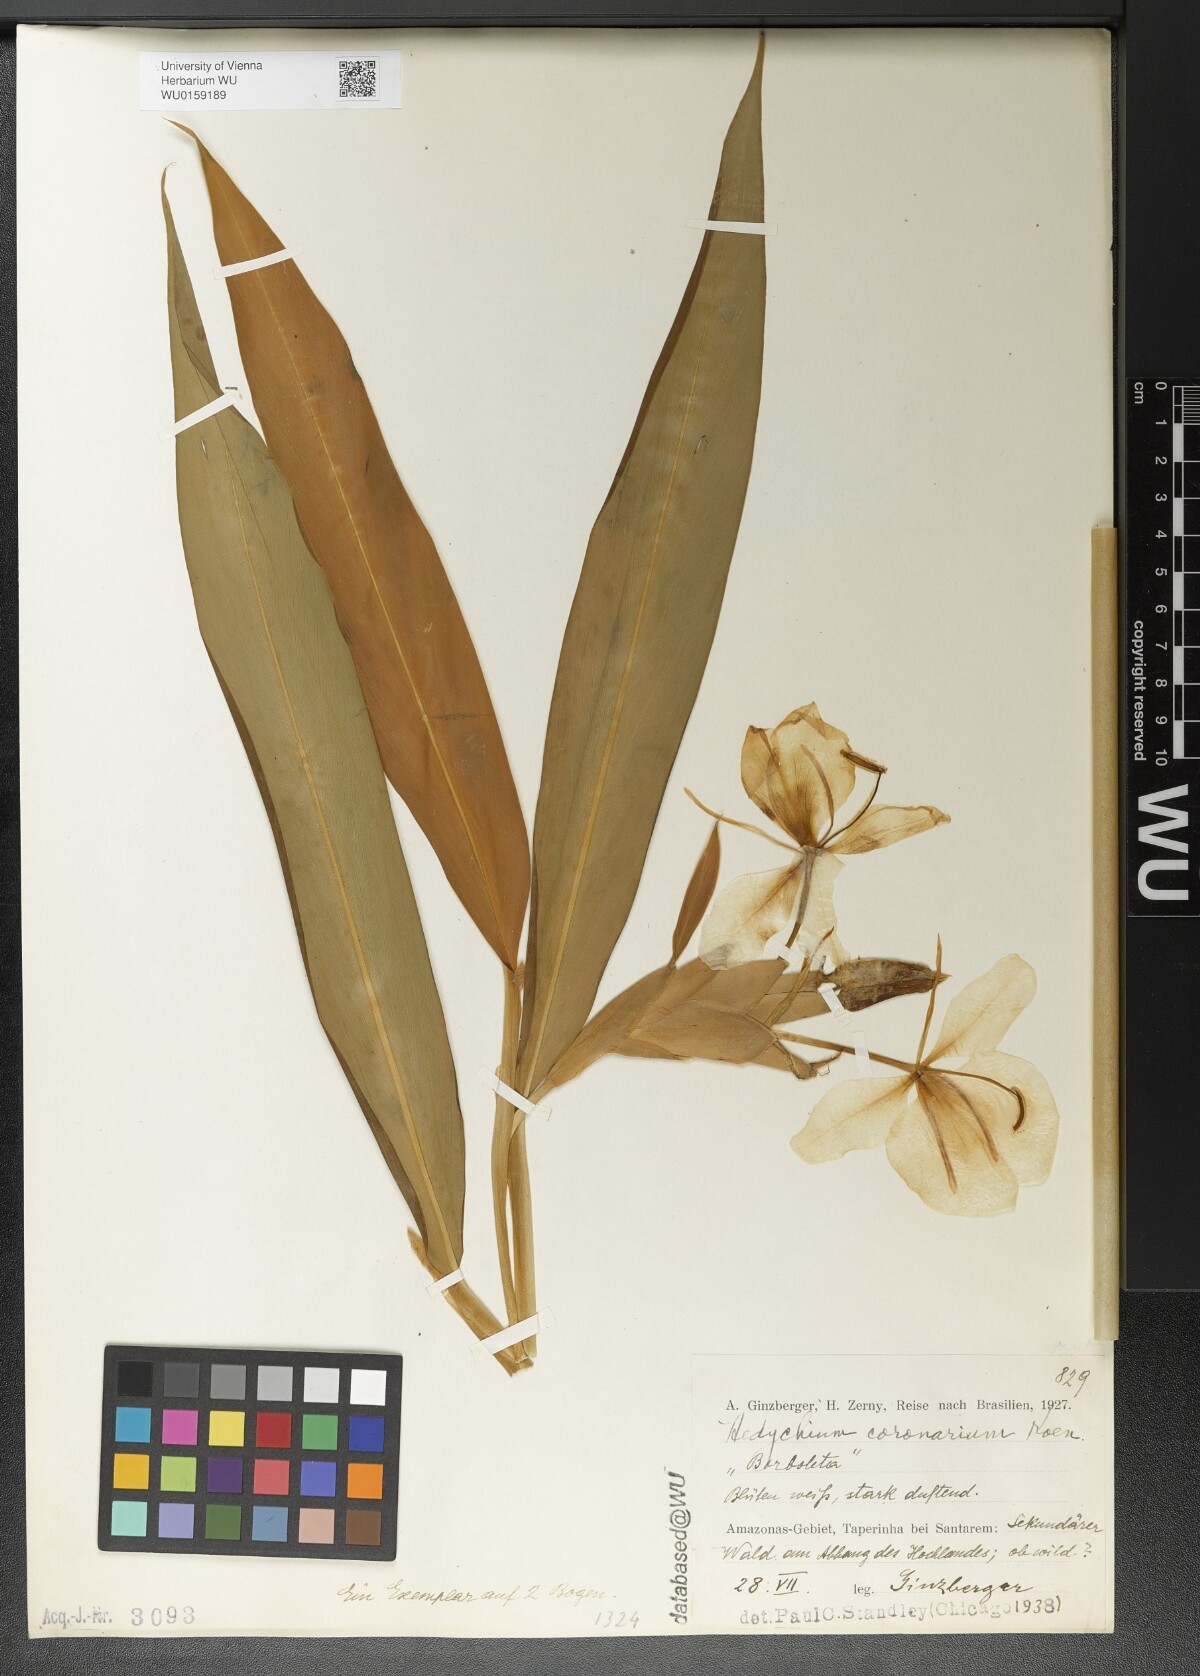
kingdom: Plantae
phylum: Tracheophyta
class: Liliopsida
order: Zingiberales
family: Zingiberaceae
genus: Hedychium
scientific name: Hedychium coronarium
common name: White garland-lily
